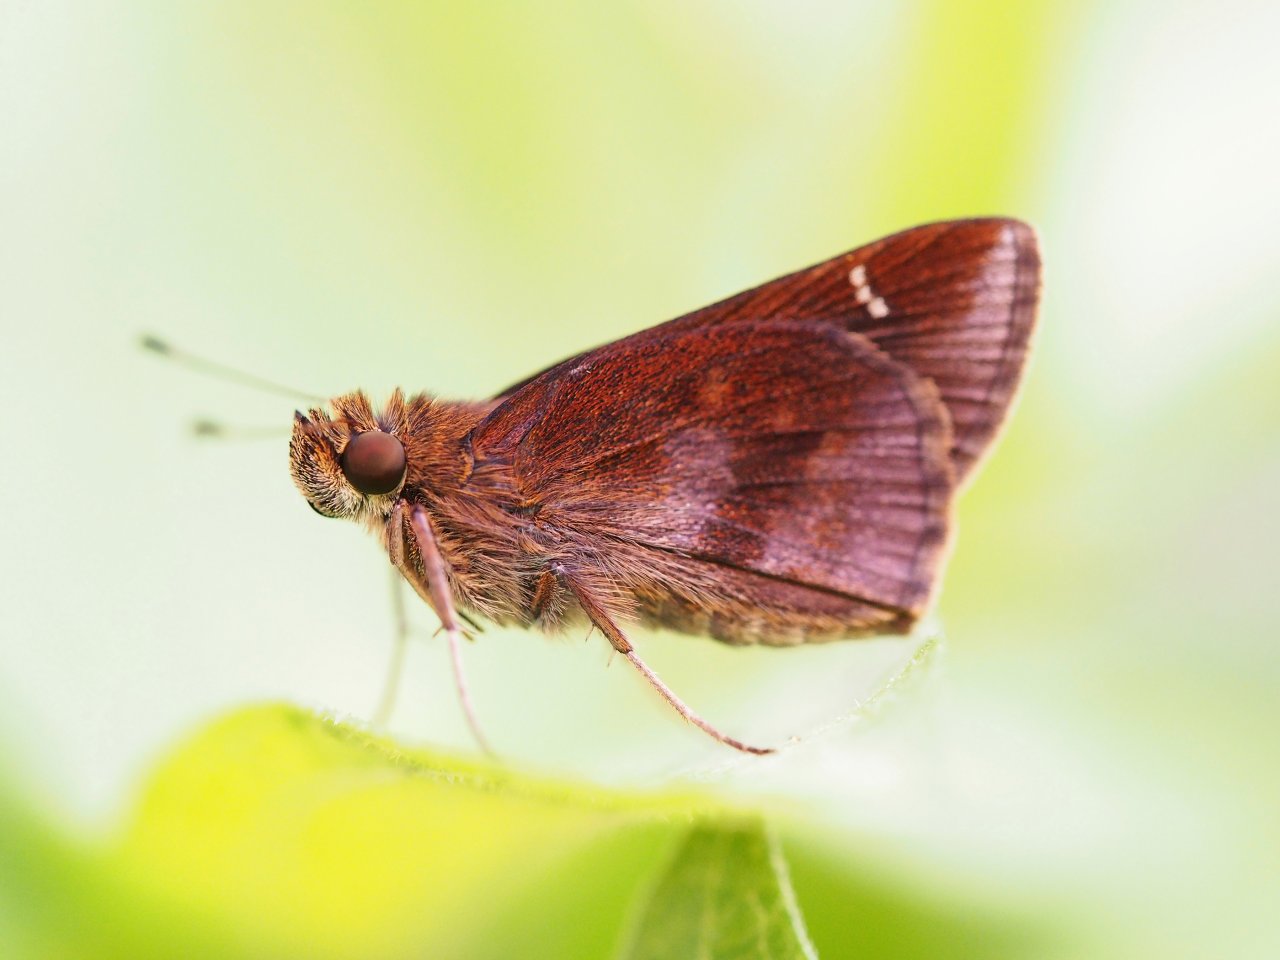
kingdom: Animalia
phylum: Arthropoda
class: Insecta
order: Lepidoptera
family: Hesperiidae
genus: Lerema
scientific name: Lerema accius
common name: Clouded Skipper
